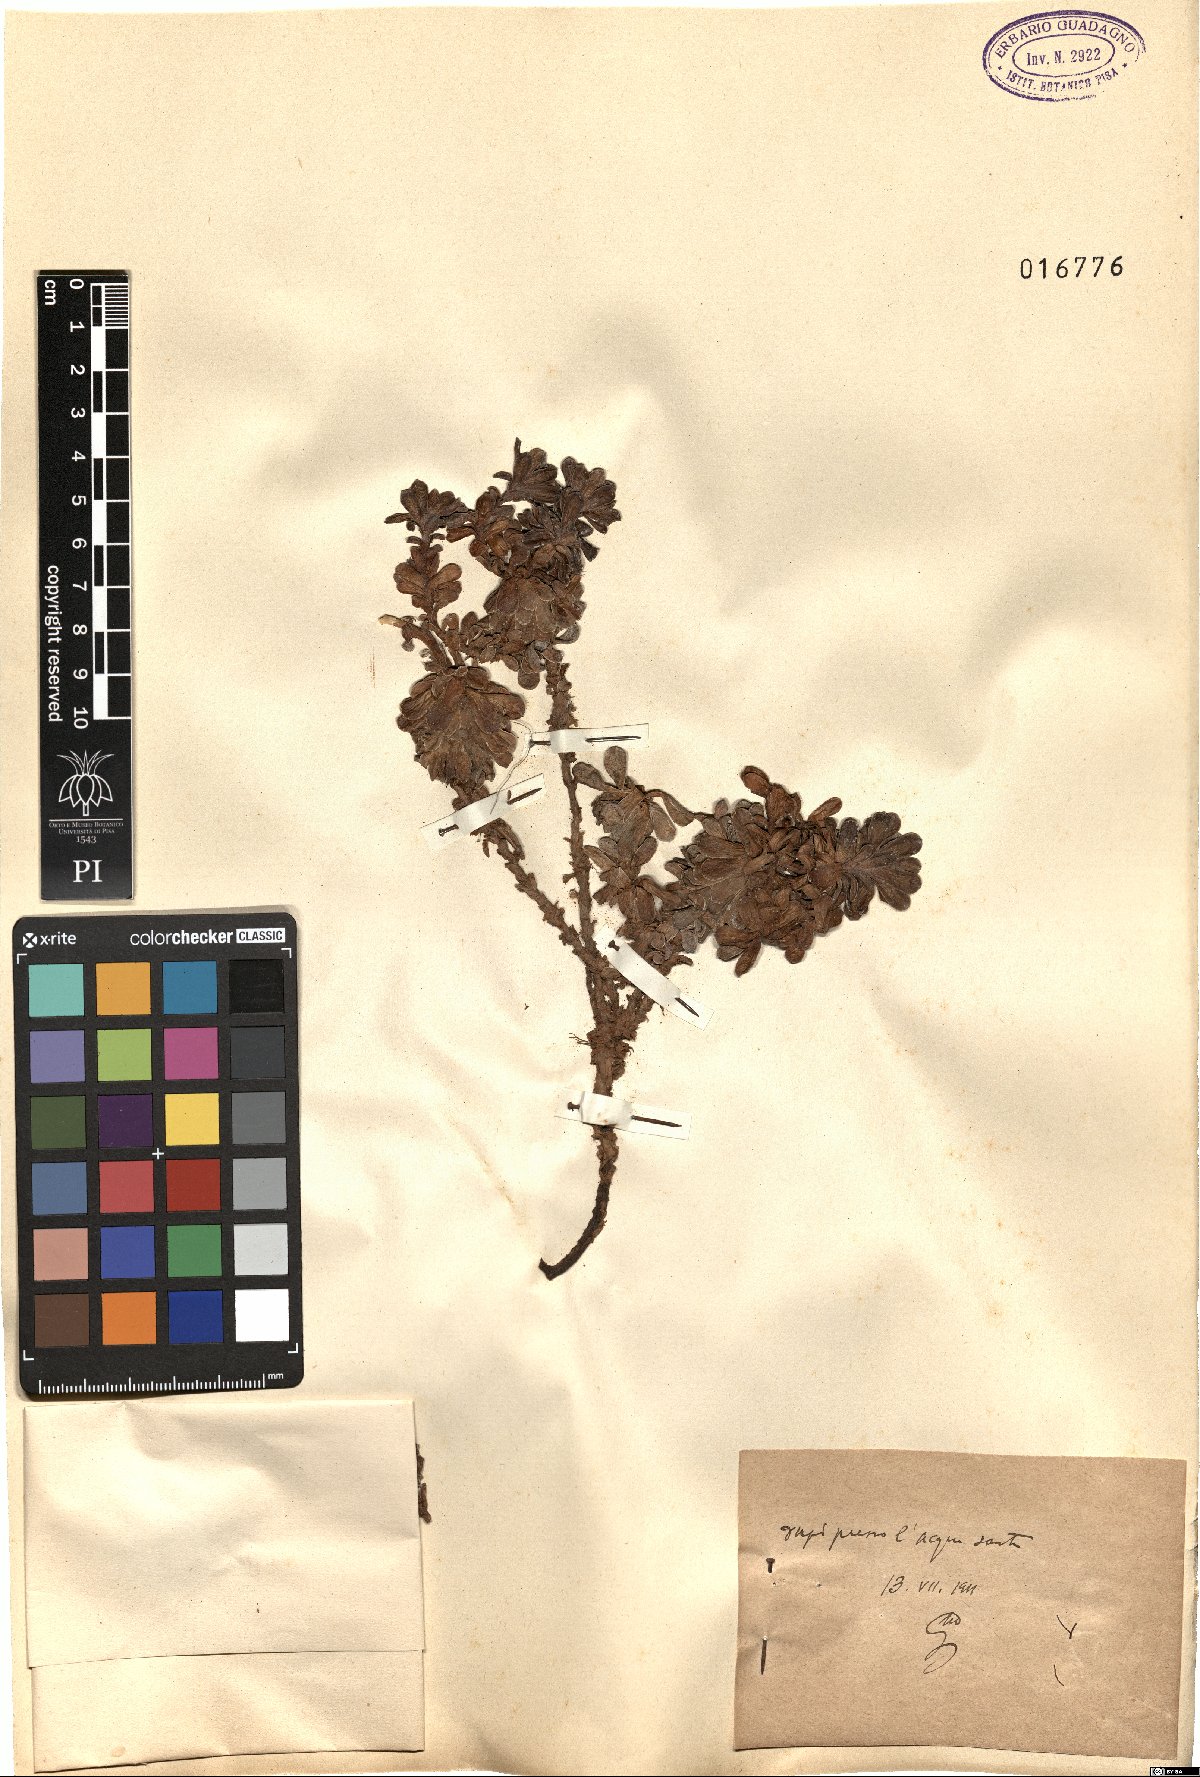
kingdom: Plantae
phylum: Tracheophyta
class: Magnoliopsida
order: Saxifragales
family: Saxifragaceae
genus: Saxifraga
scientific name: Saxifraga
